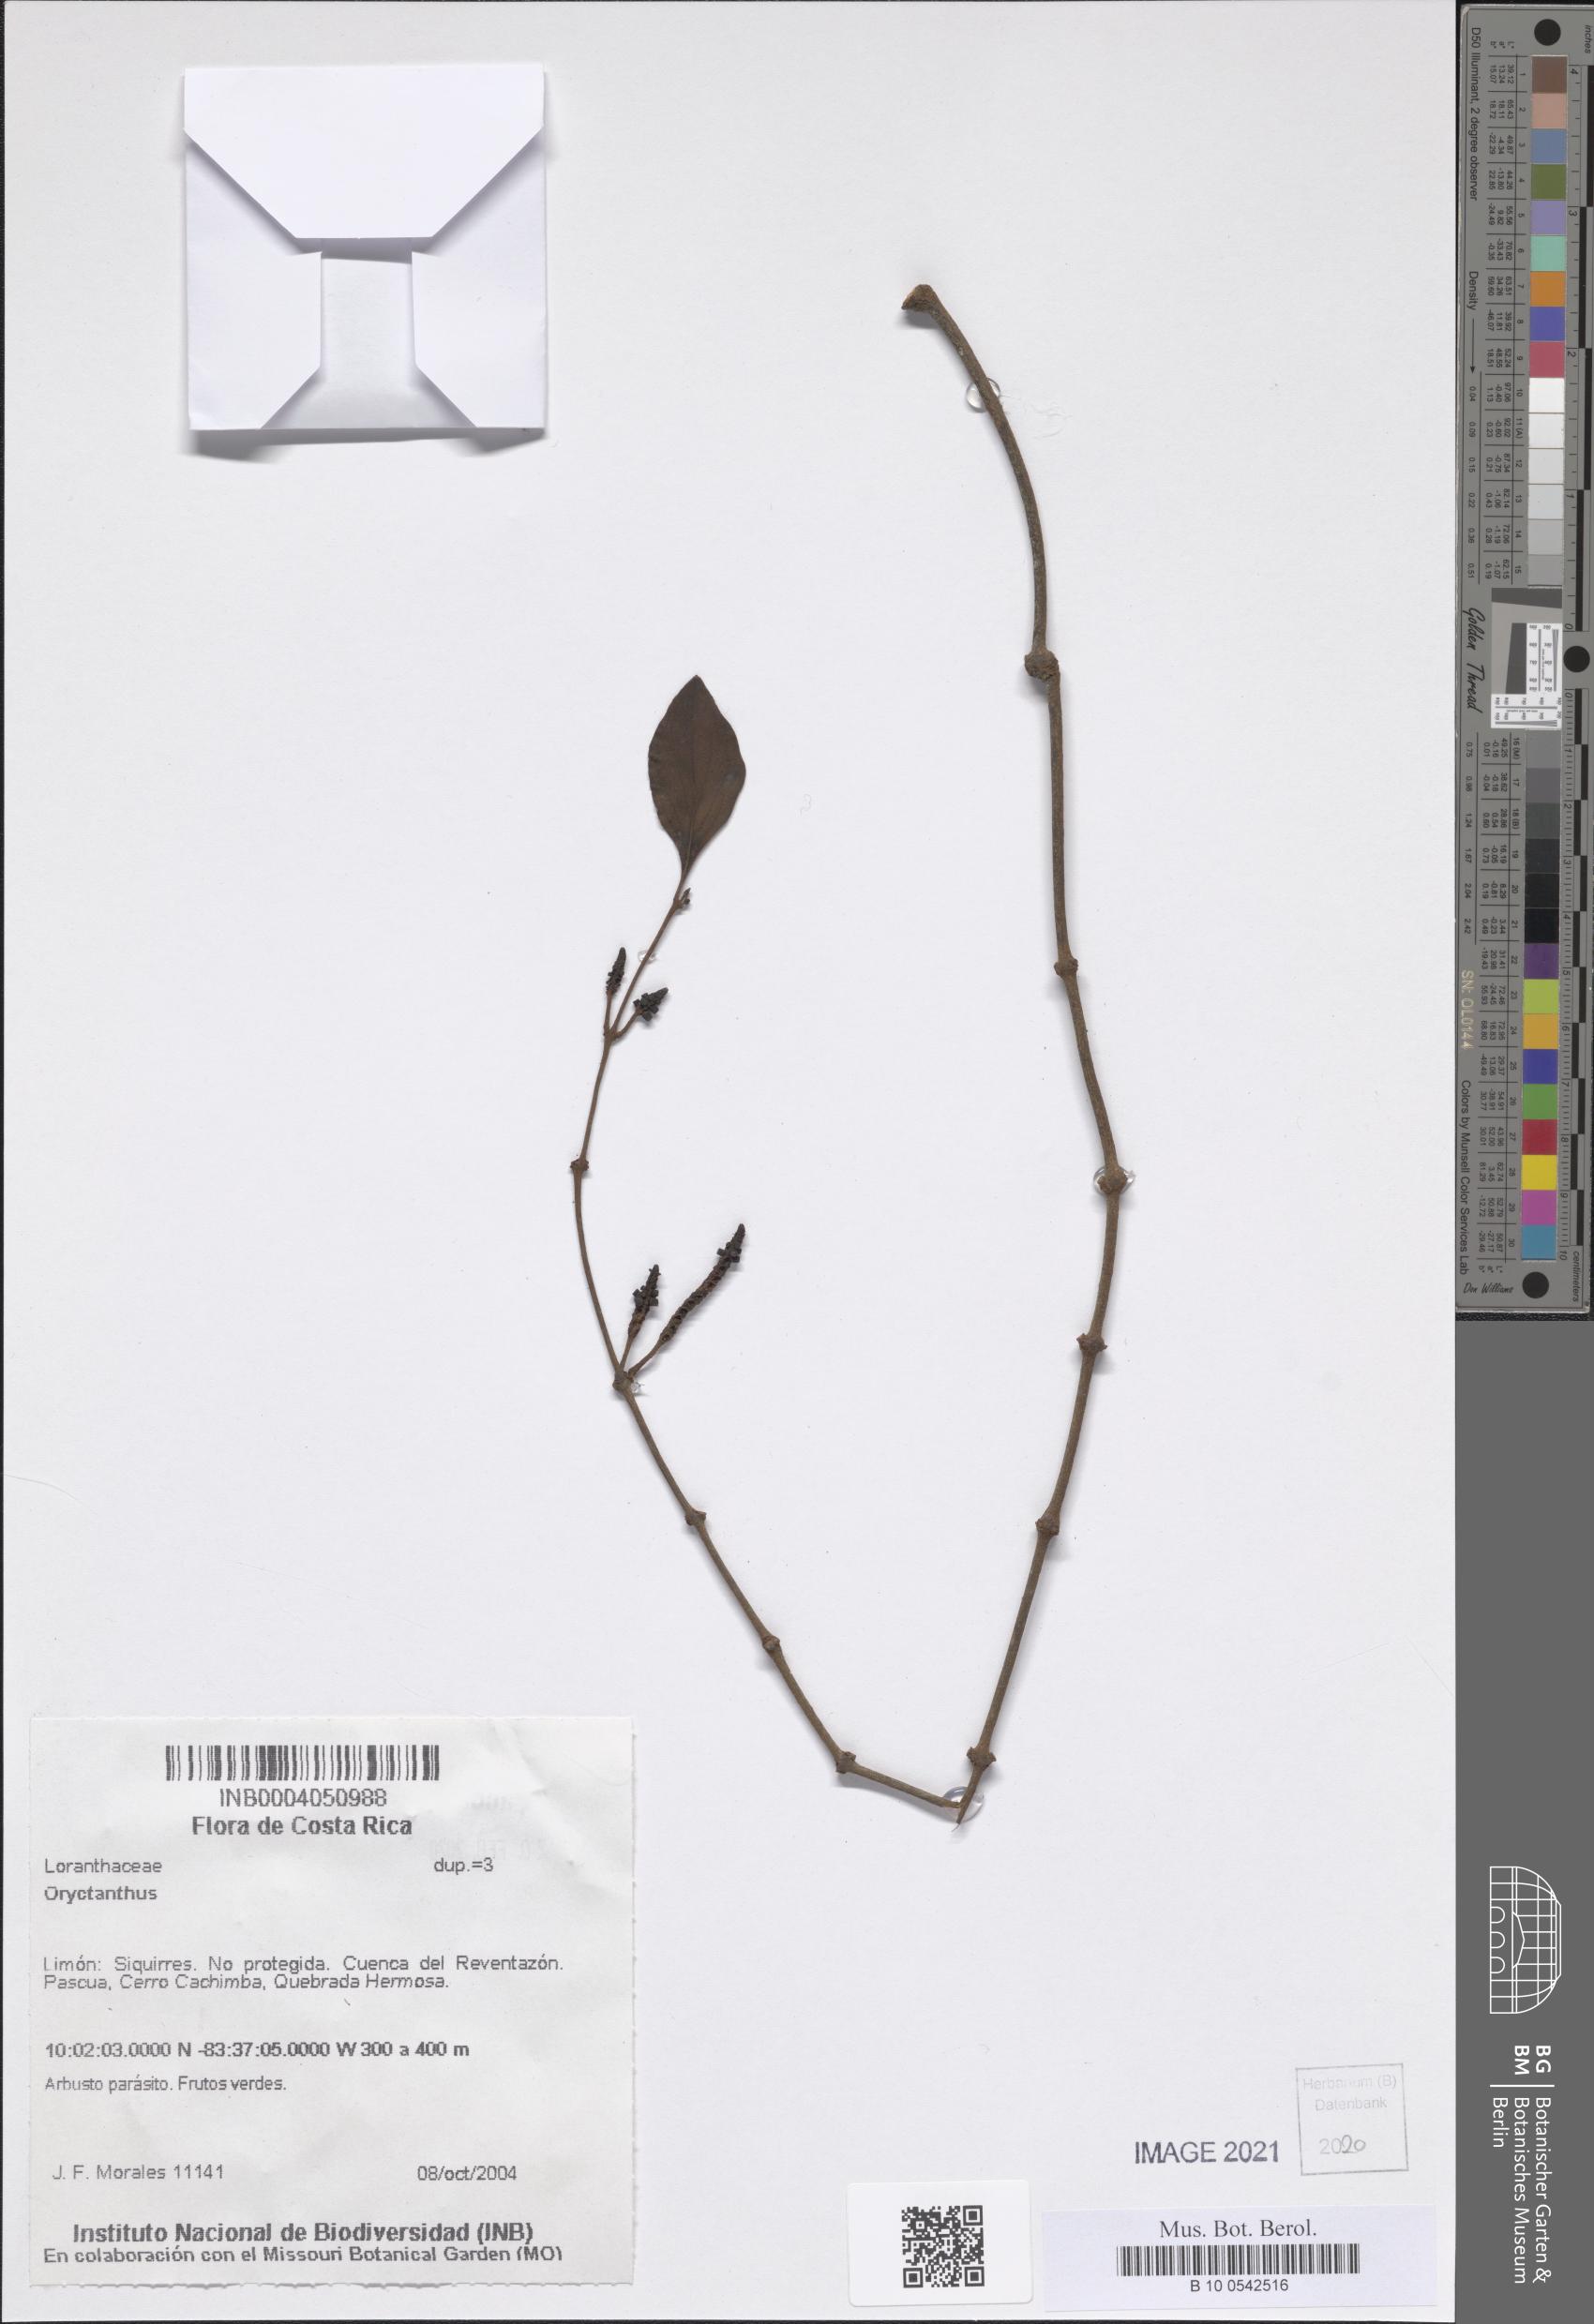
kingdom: Plantae
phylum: Tracheophyta
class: Magnoliopsida
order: Santalales
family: Loranthaceae
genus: Oryctanthus
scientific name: Oryctanthus
